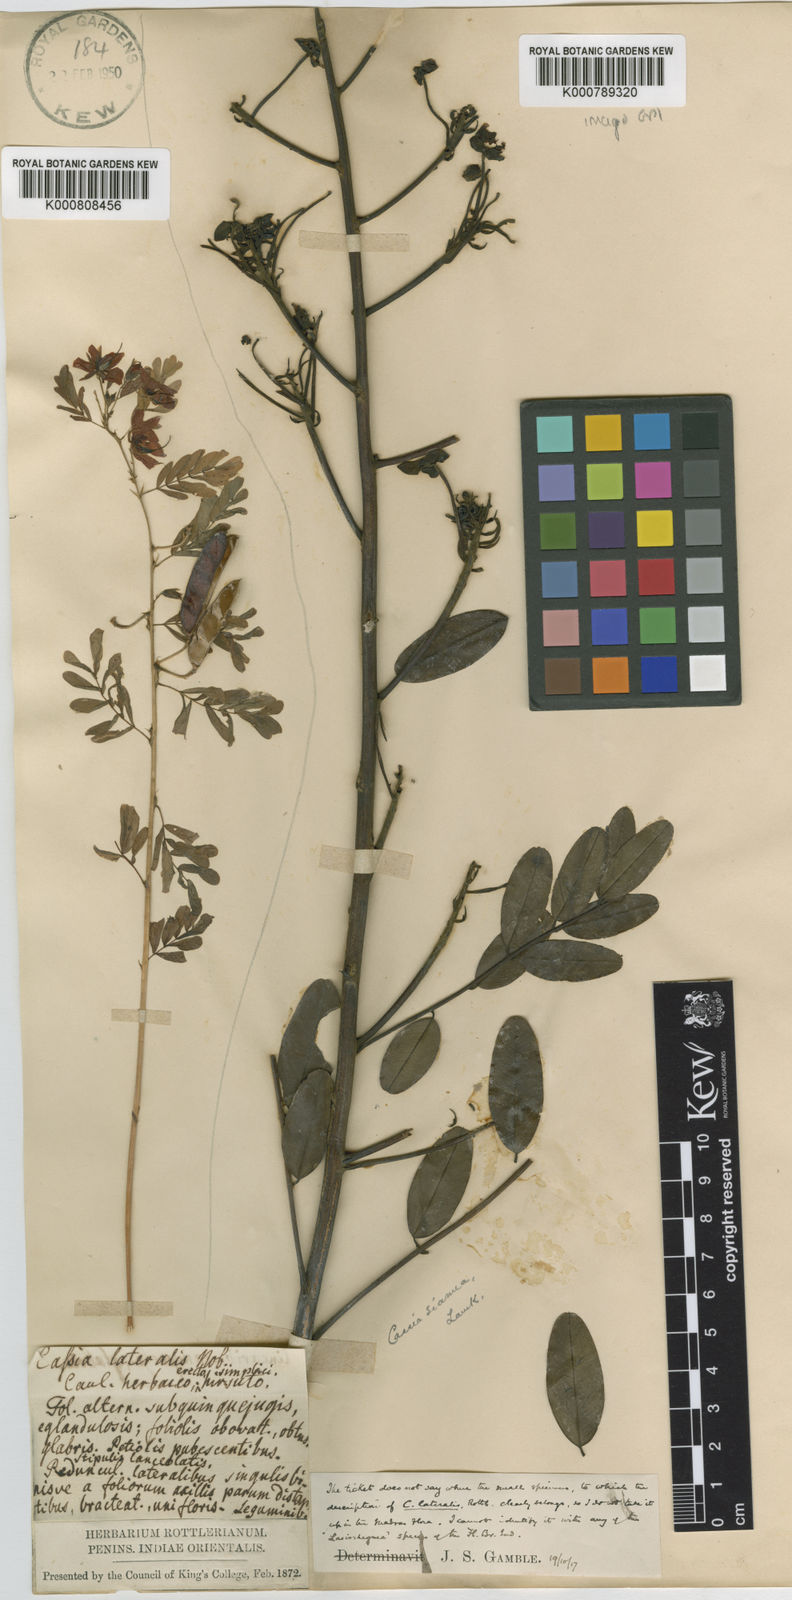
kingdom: Plantae
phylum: Tracheophyta
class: Magnoliopsida
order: Fabales
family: Fabaceae
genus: Senna
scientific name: Senna siamea
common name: Siamese cassia
